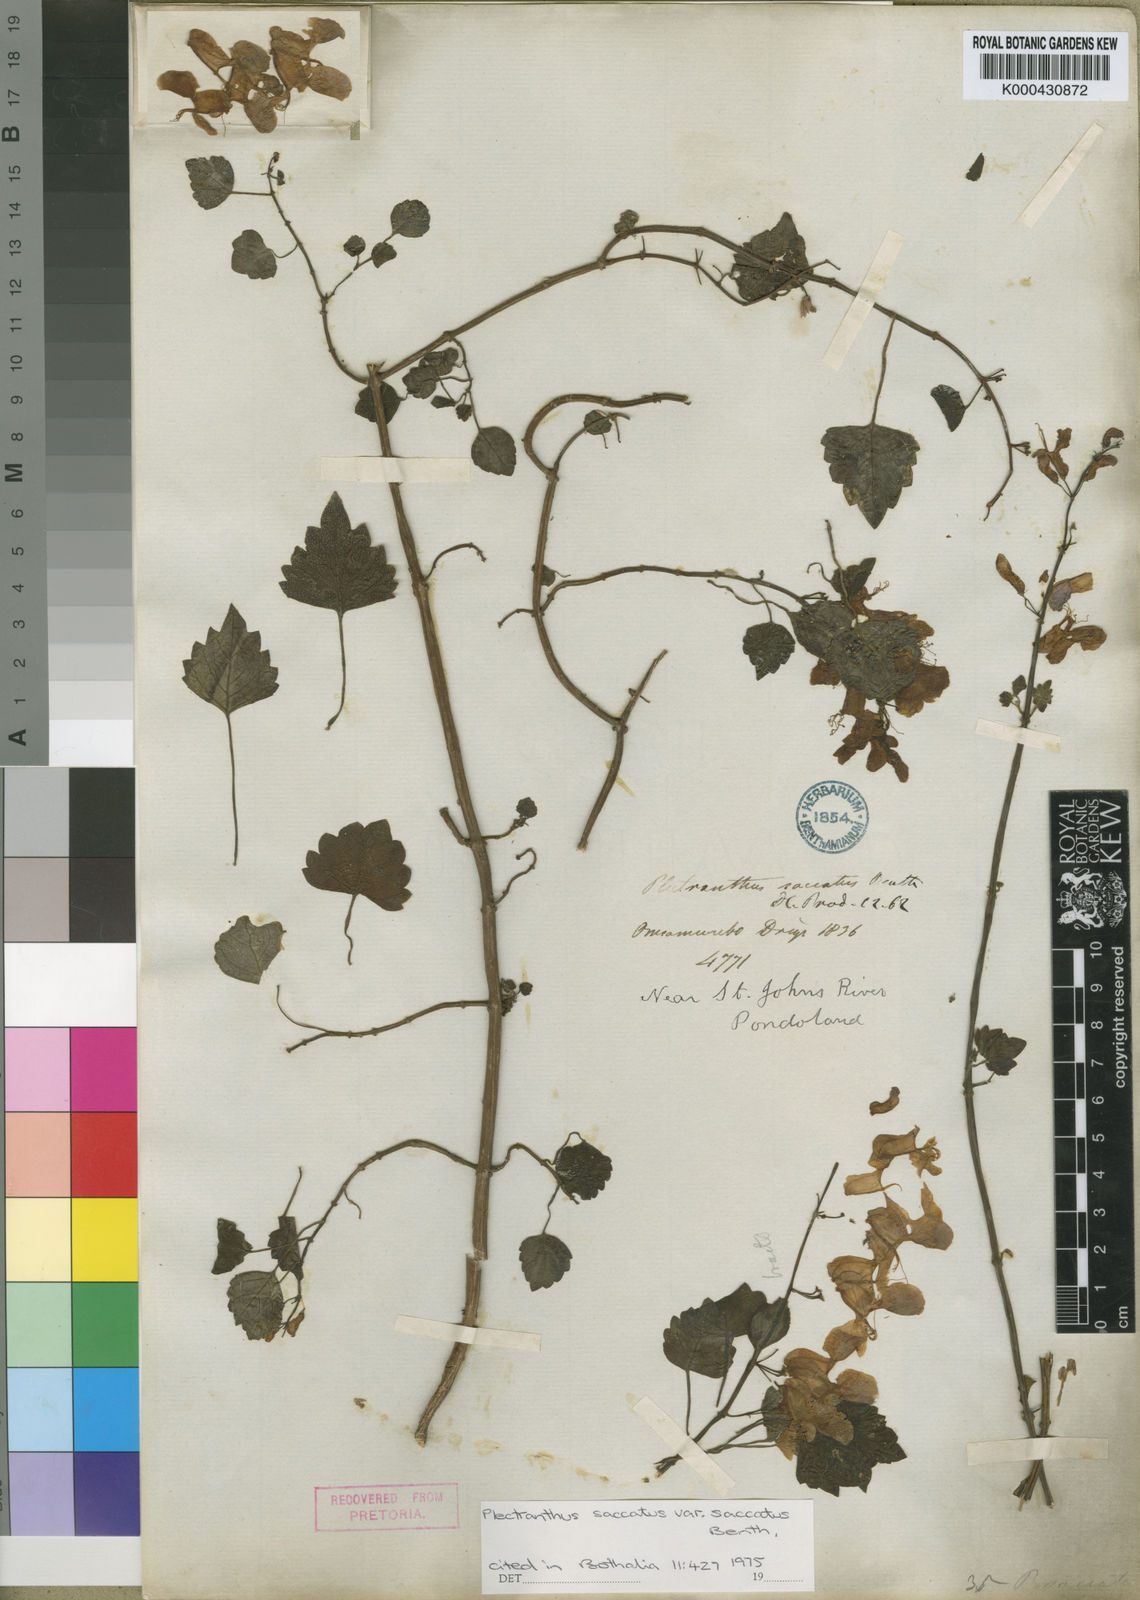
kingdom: Plantae
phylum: Tracheophyta
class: Magnoliopsida
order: Lamiales
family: Lamiaceae
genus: Plectranthus
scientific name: Plectranthus saccatus
